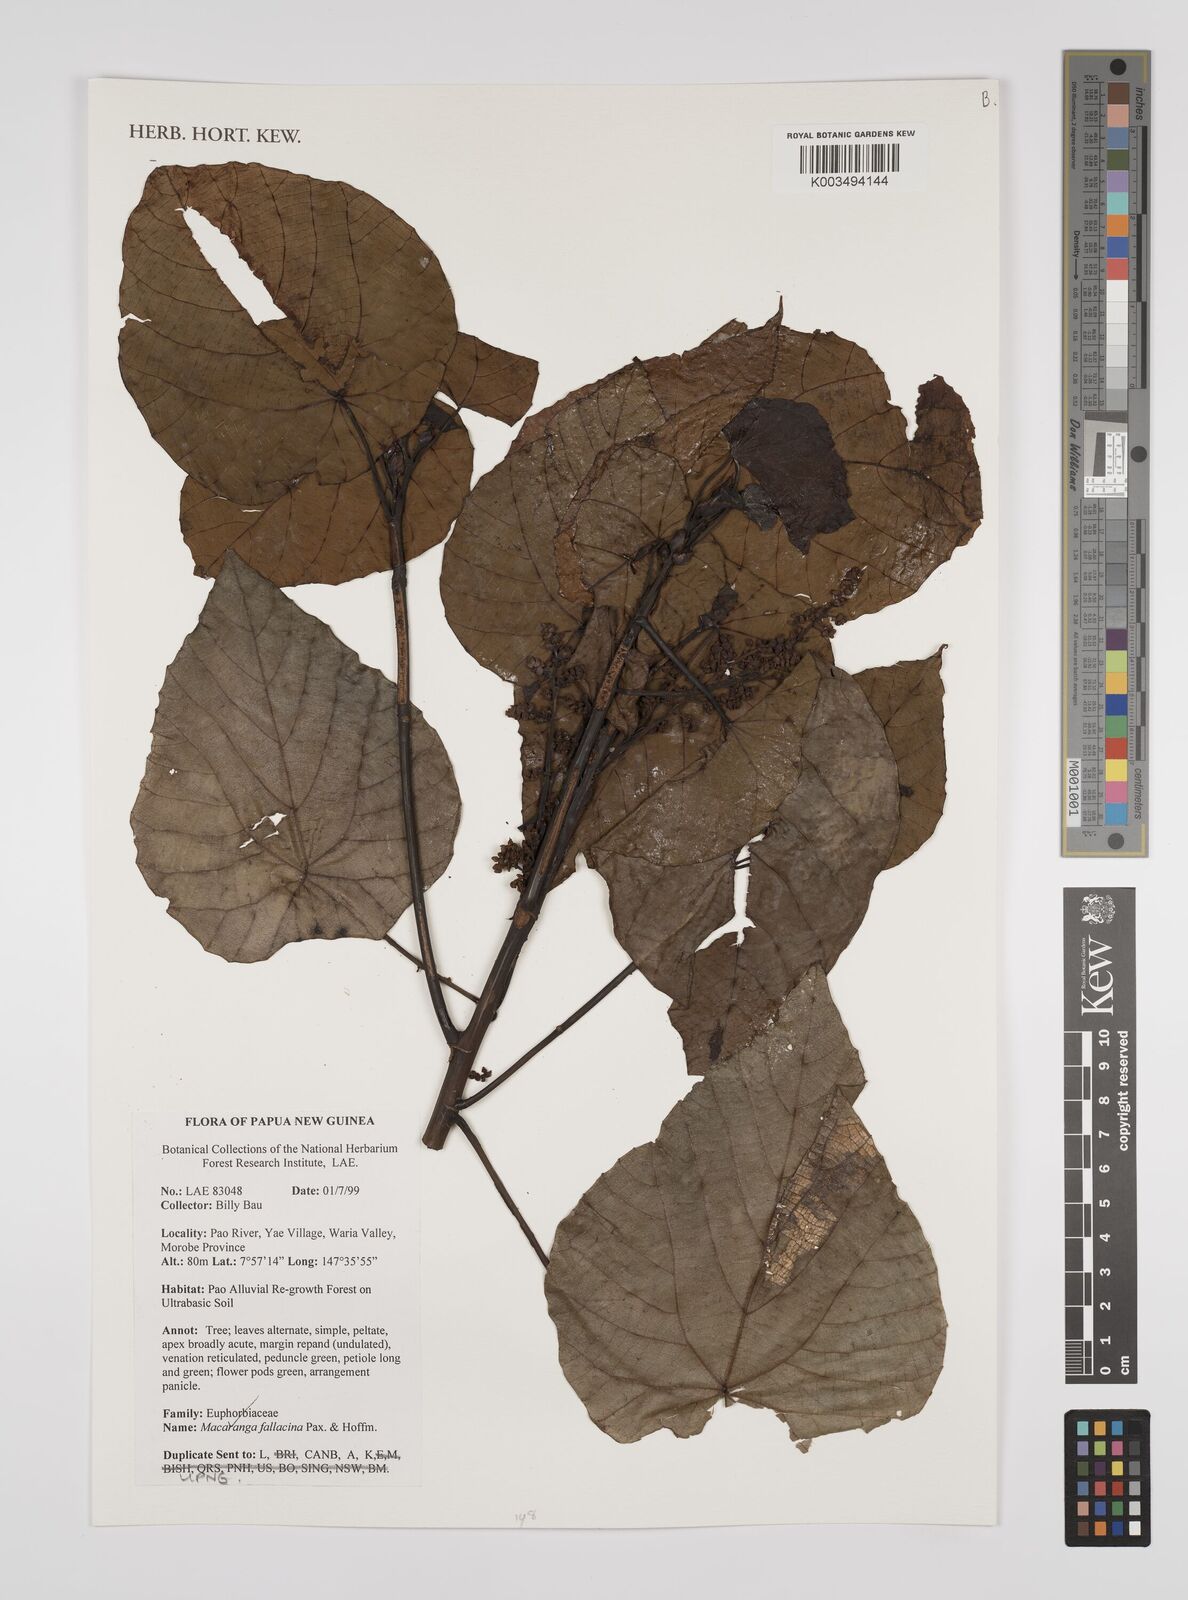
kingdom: Plantae
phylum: Tracheophyta
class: Magnoliopsida
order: Malpighiales
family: Euphorbiaceae
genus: Macaranga
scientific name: Macaranga fallacina
